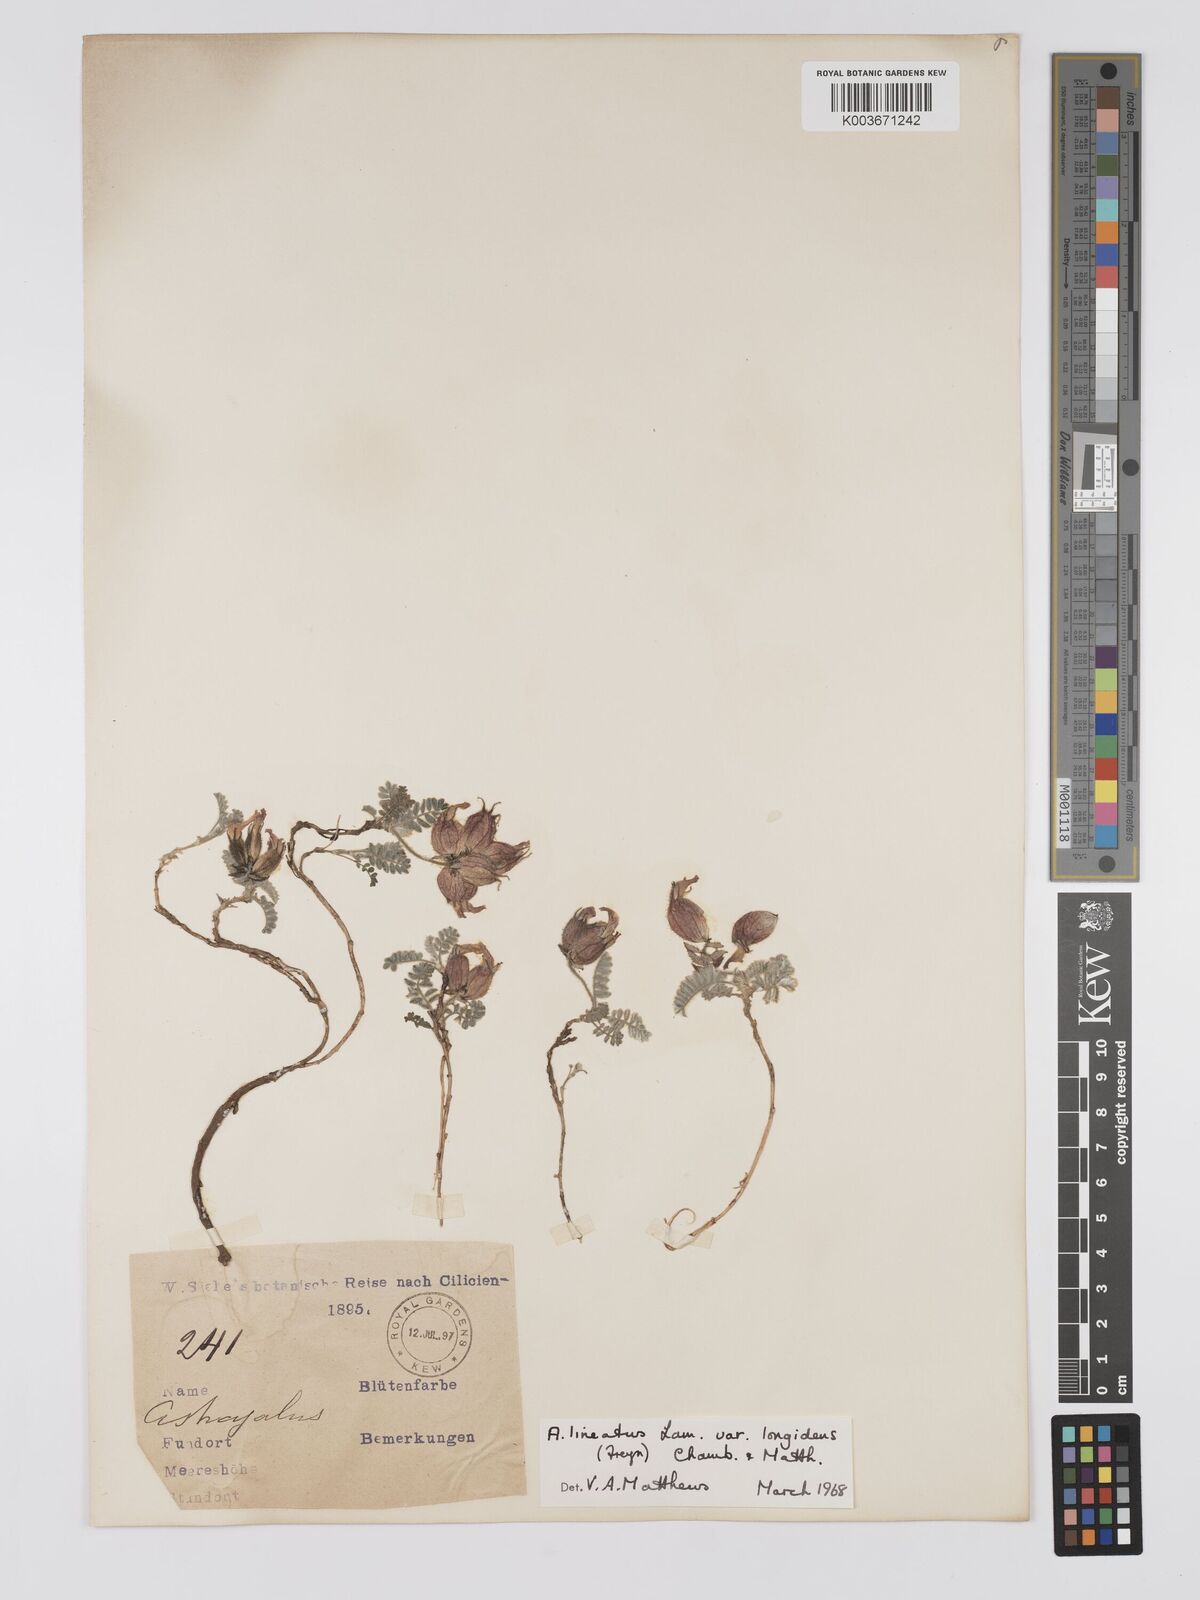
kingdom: Plantae
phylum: Tracheophyta
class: Magnoliopsida
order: Fabales
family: Fabaceae
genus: Astragalus
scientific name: Astragalus lineatus
